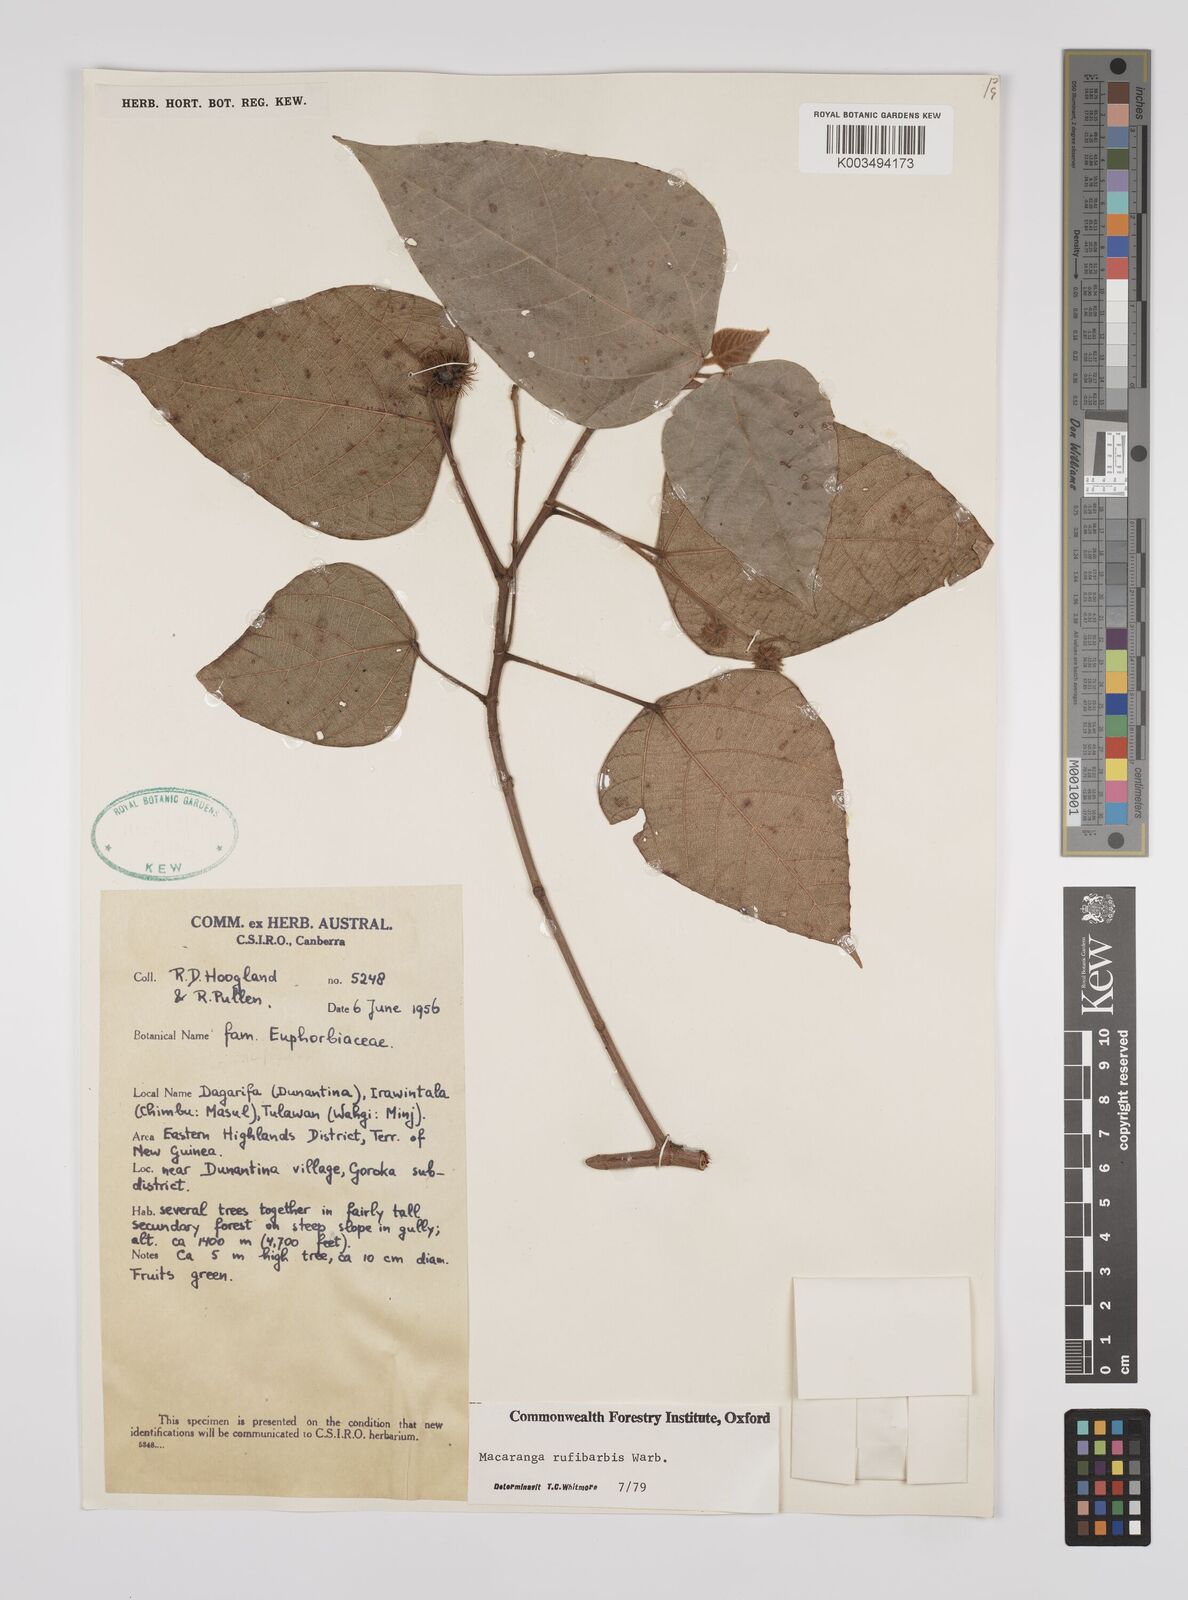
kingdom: Plantae
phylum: Tracheophyta
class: Magnoliopsida
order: Malpighiales
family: Euphorbiaceae
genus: Macaranga
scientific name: Macaranga rufibarbis
